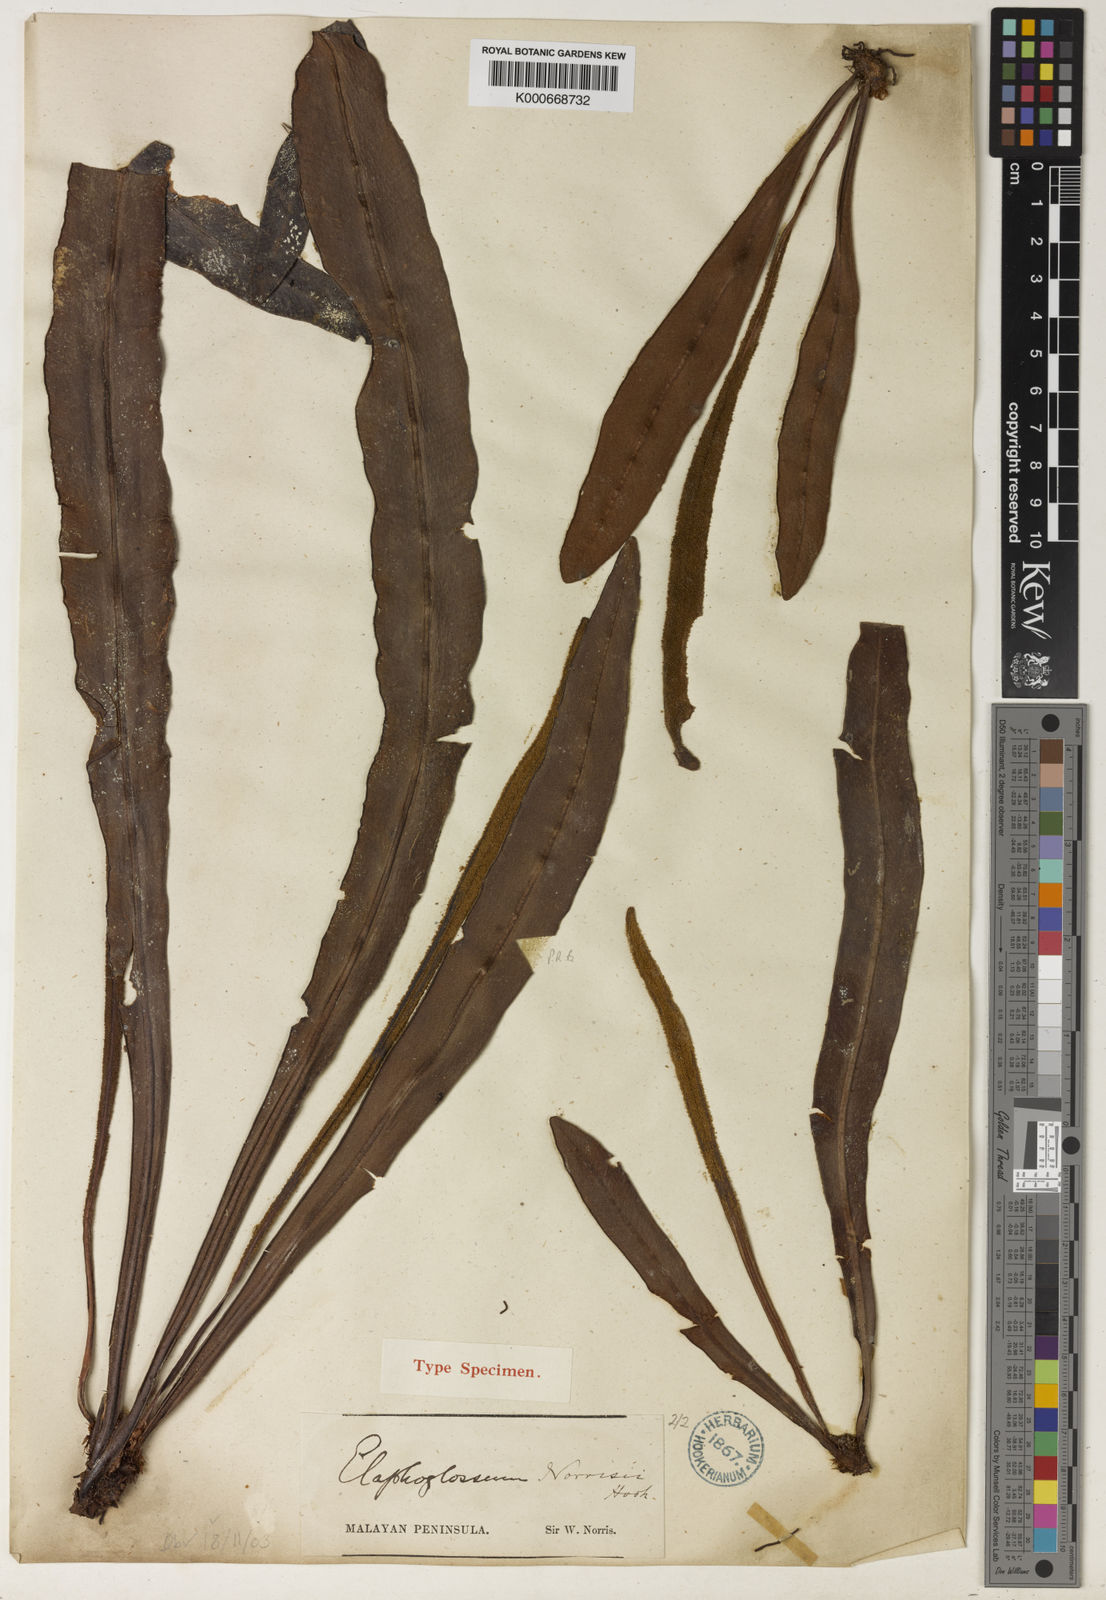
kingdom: Plantae
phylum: Tracheophyta
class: Polypodiopsida
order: Polypodiales
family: Dryopteridaceae
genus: Elaphoglossum
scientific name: Elaphoglossum norrisii
